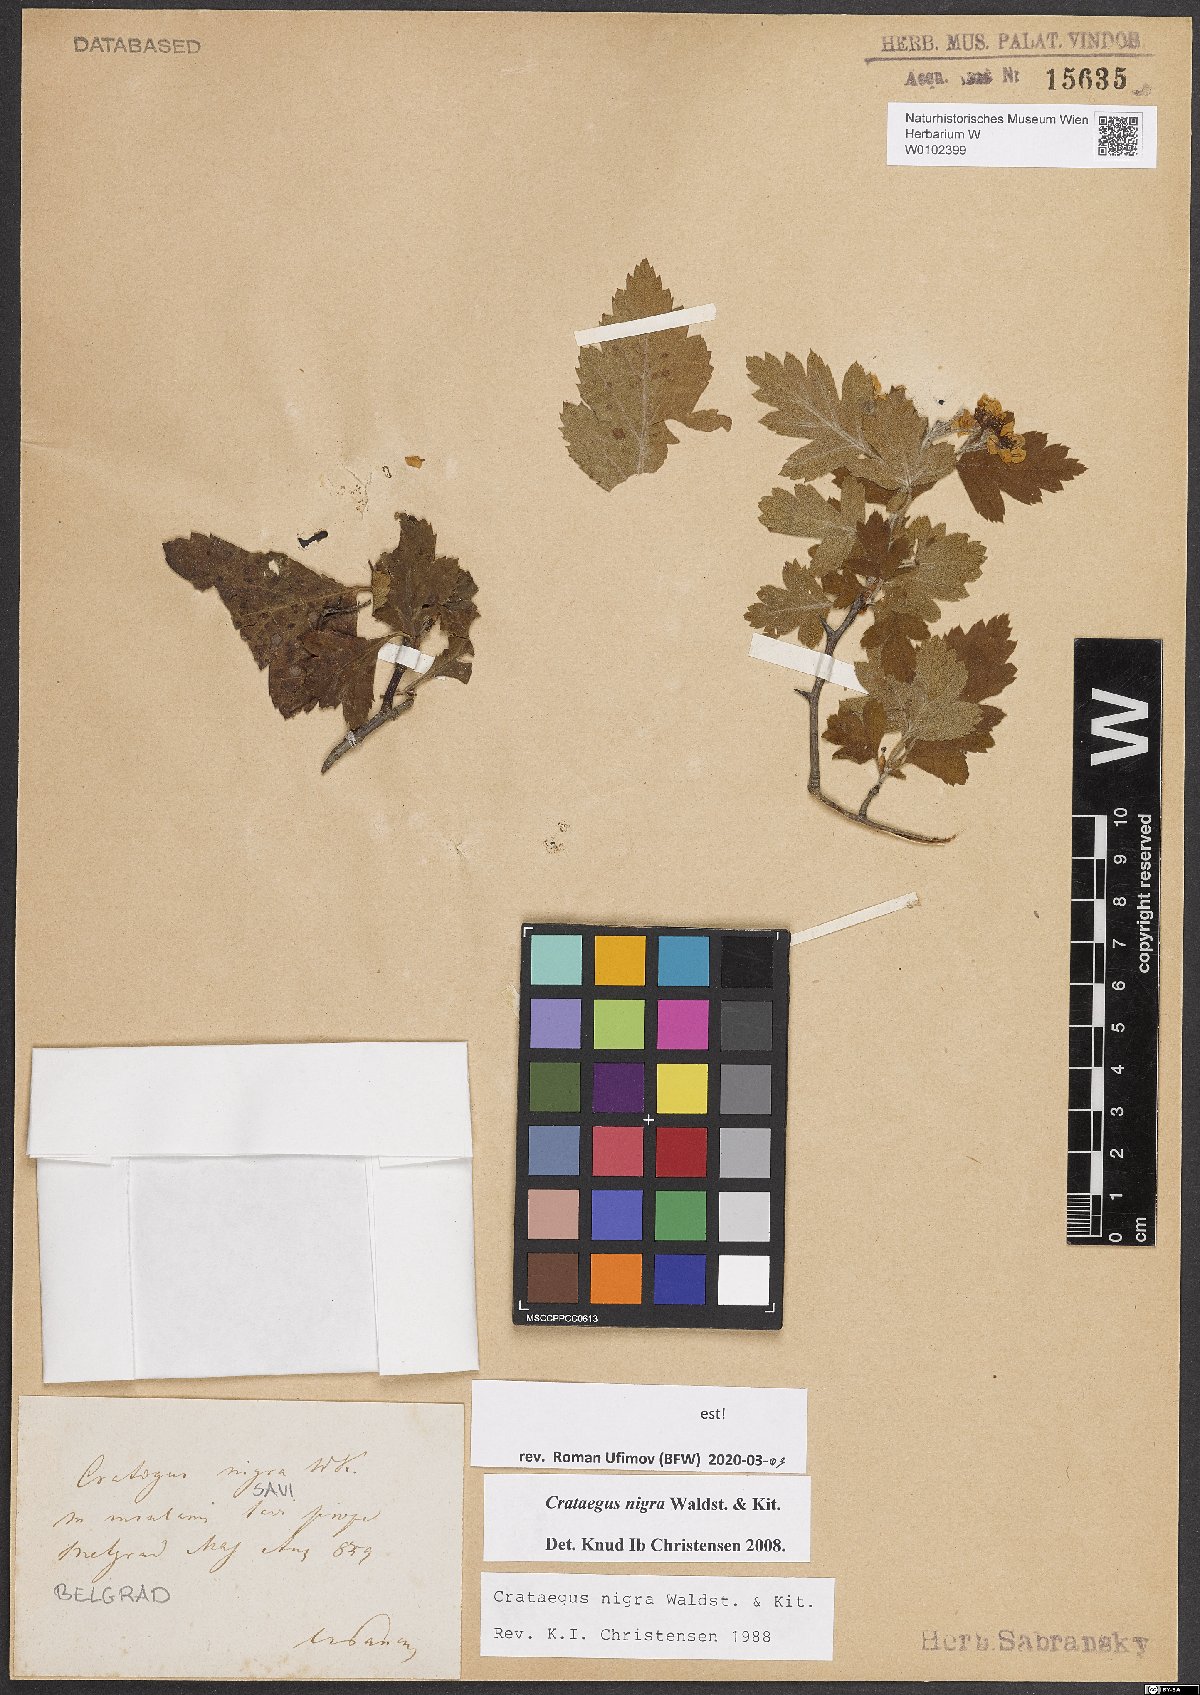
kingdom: Plantae
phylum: Tracheophyta
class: Magnoliopsida
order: Rosales
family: Rosaceae
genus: Crataegus
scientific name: Crataegus nigra
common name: Hungarian thorn
